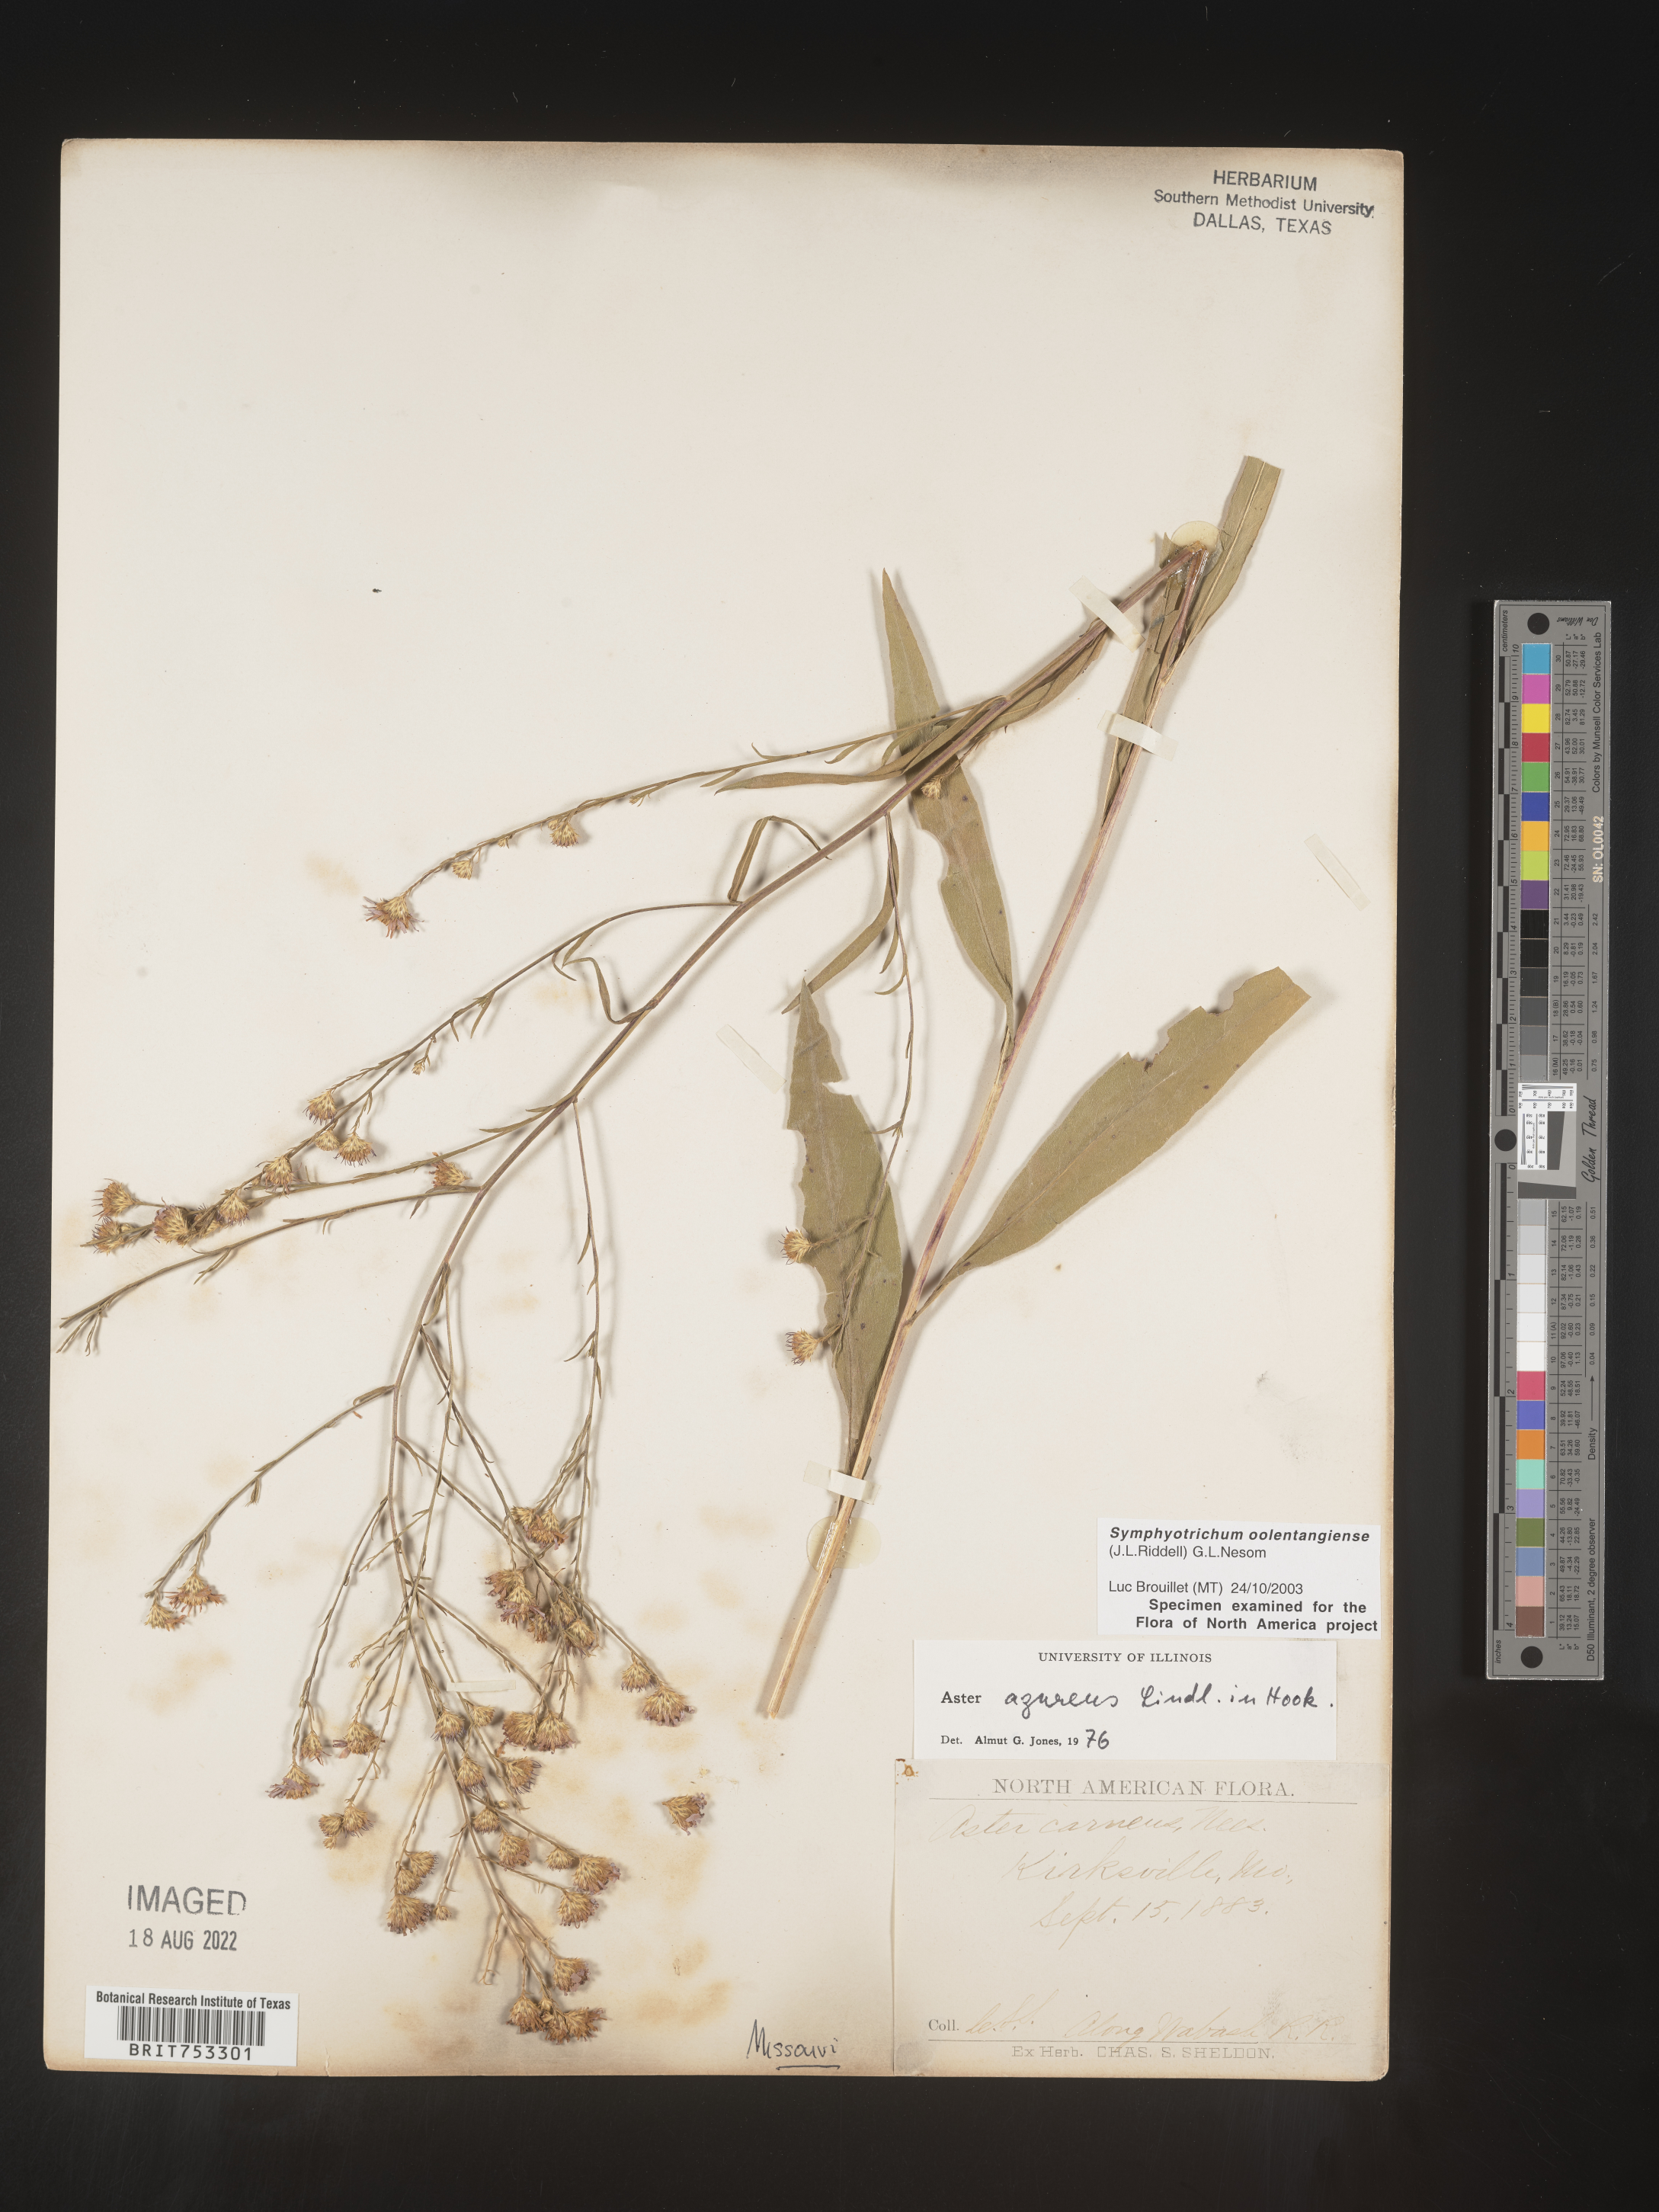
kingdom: Plantae
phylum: Tracheophyta
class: Magnoliopsida
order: Asterales
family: Asteraceae
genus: Symphyotrichum
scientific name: Symphyotrichum oolentangiense
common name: Azure aster
